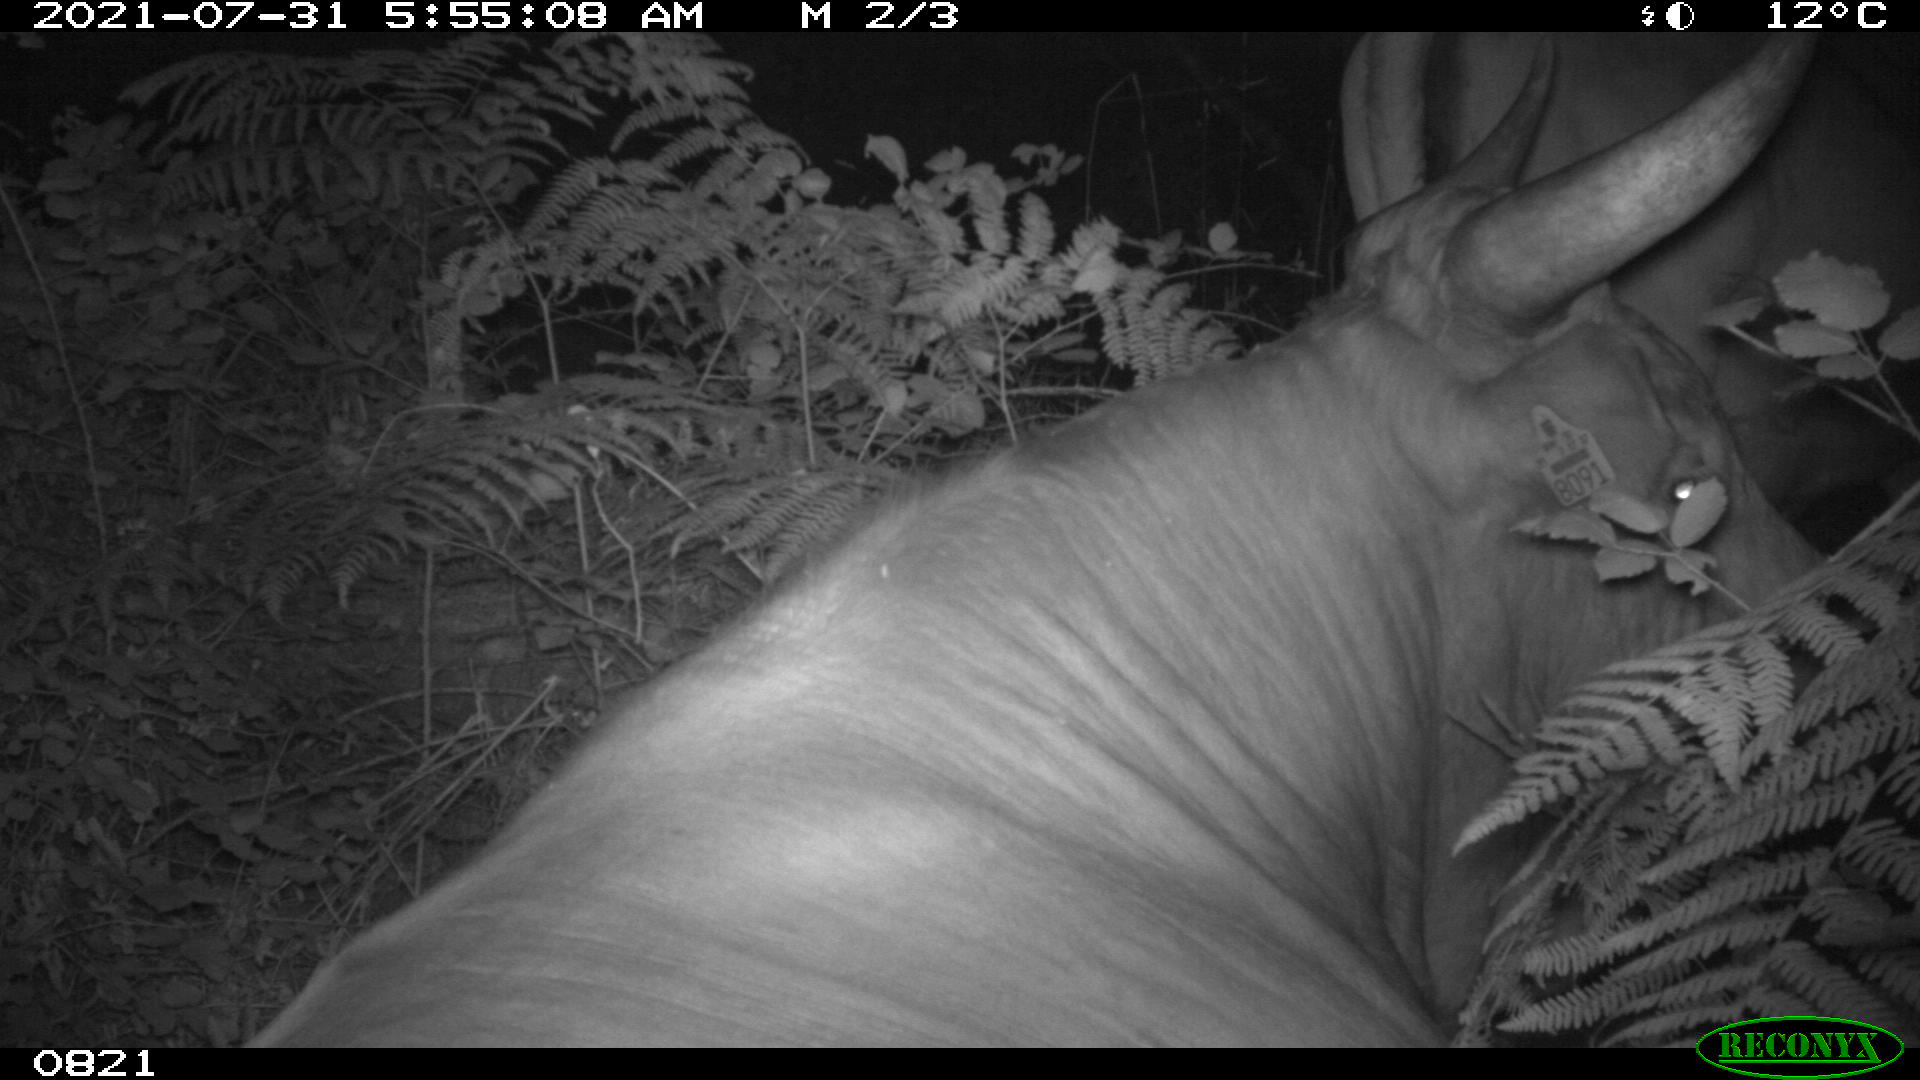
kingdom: Animalia
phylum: Chordata
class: Mammalia
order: Artiodactyla
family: Bovidae
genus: Bos
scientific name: Bos taurus
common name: Domesticated cattle
